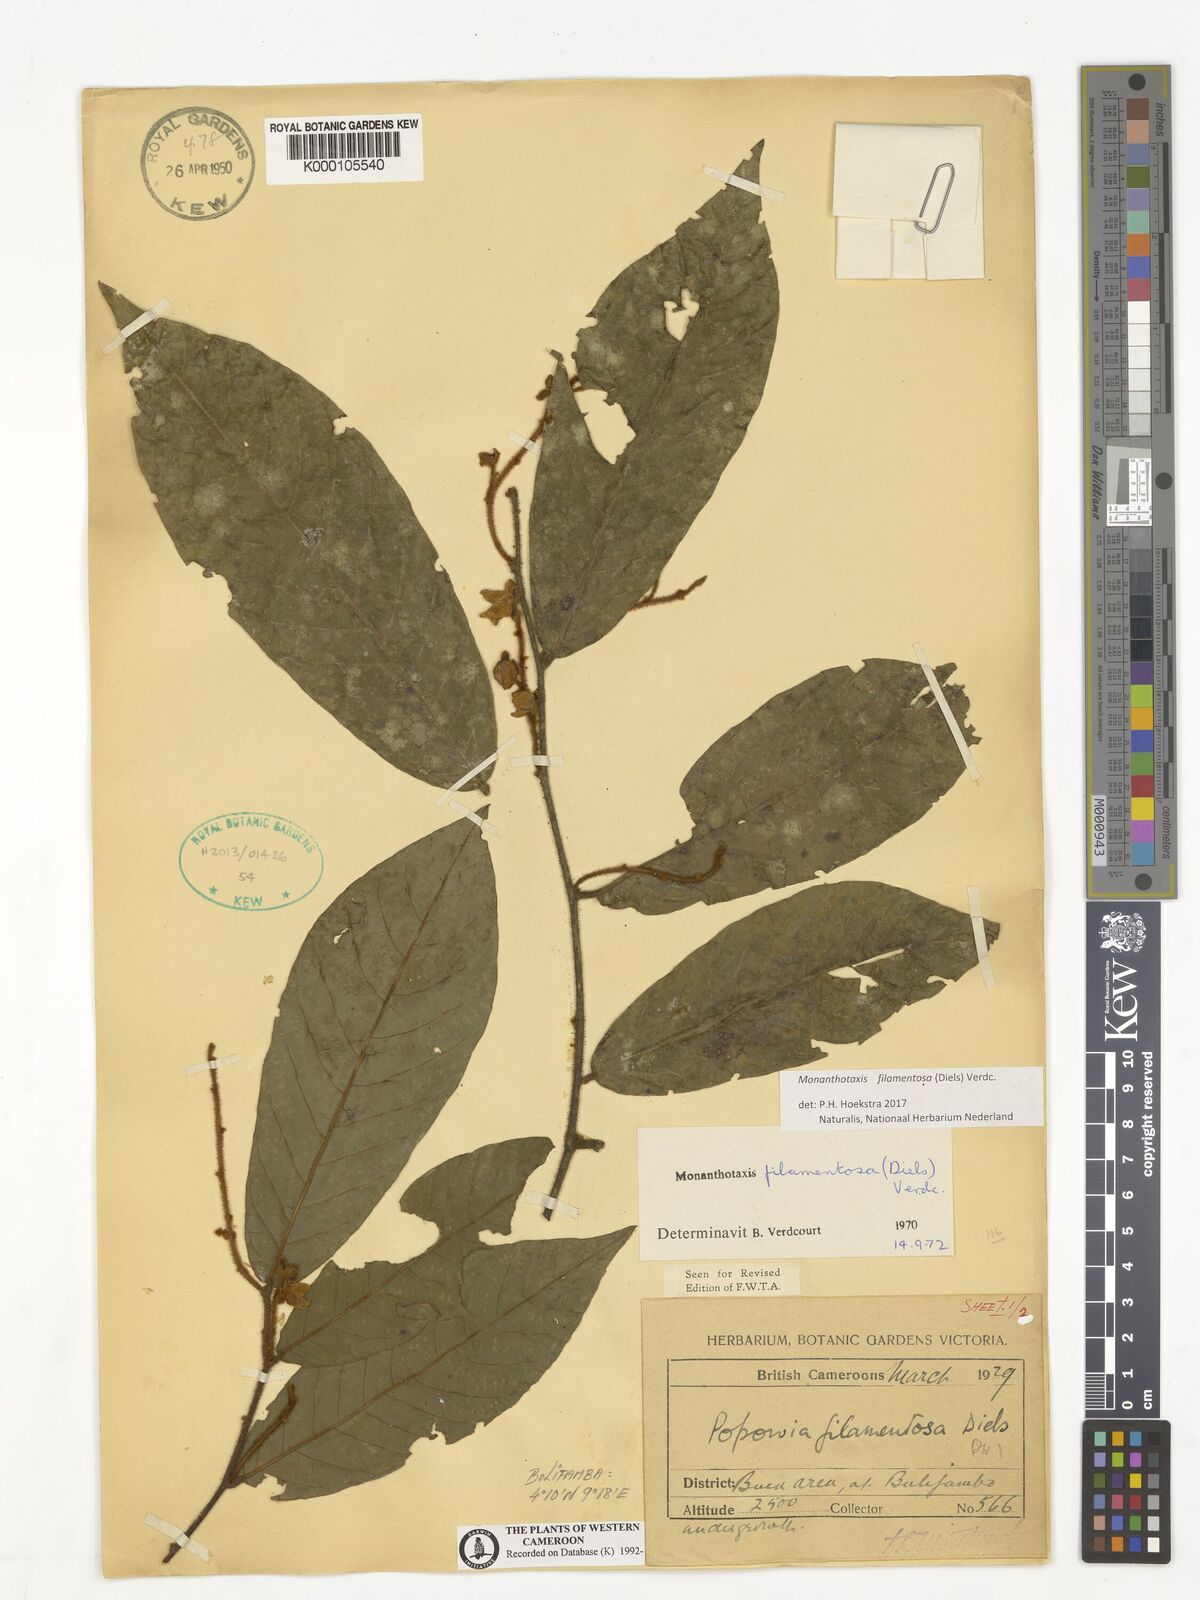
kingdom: Plantae
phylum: Tracheophyta
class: Magnoliopsida
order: Magnoliales
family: Annonaceae
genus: Monanthotaxis
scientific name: Monanthotaxis filamentosa
